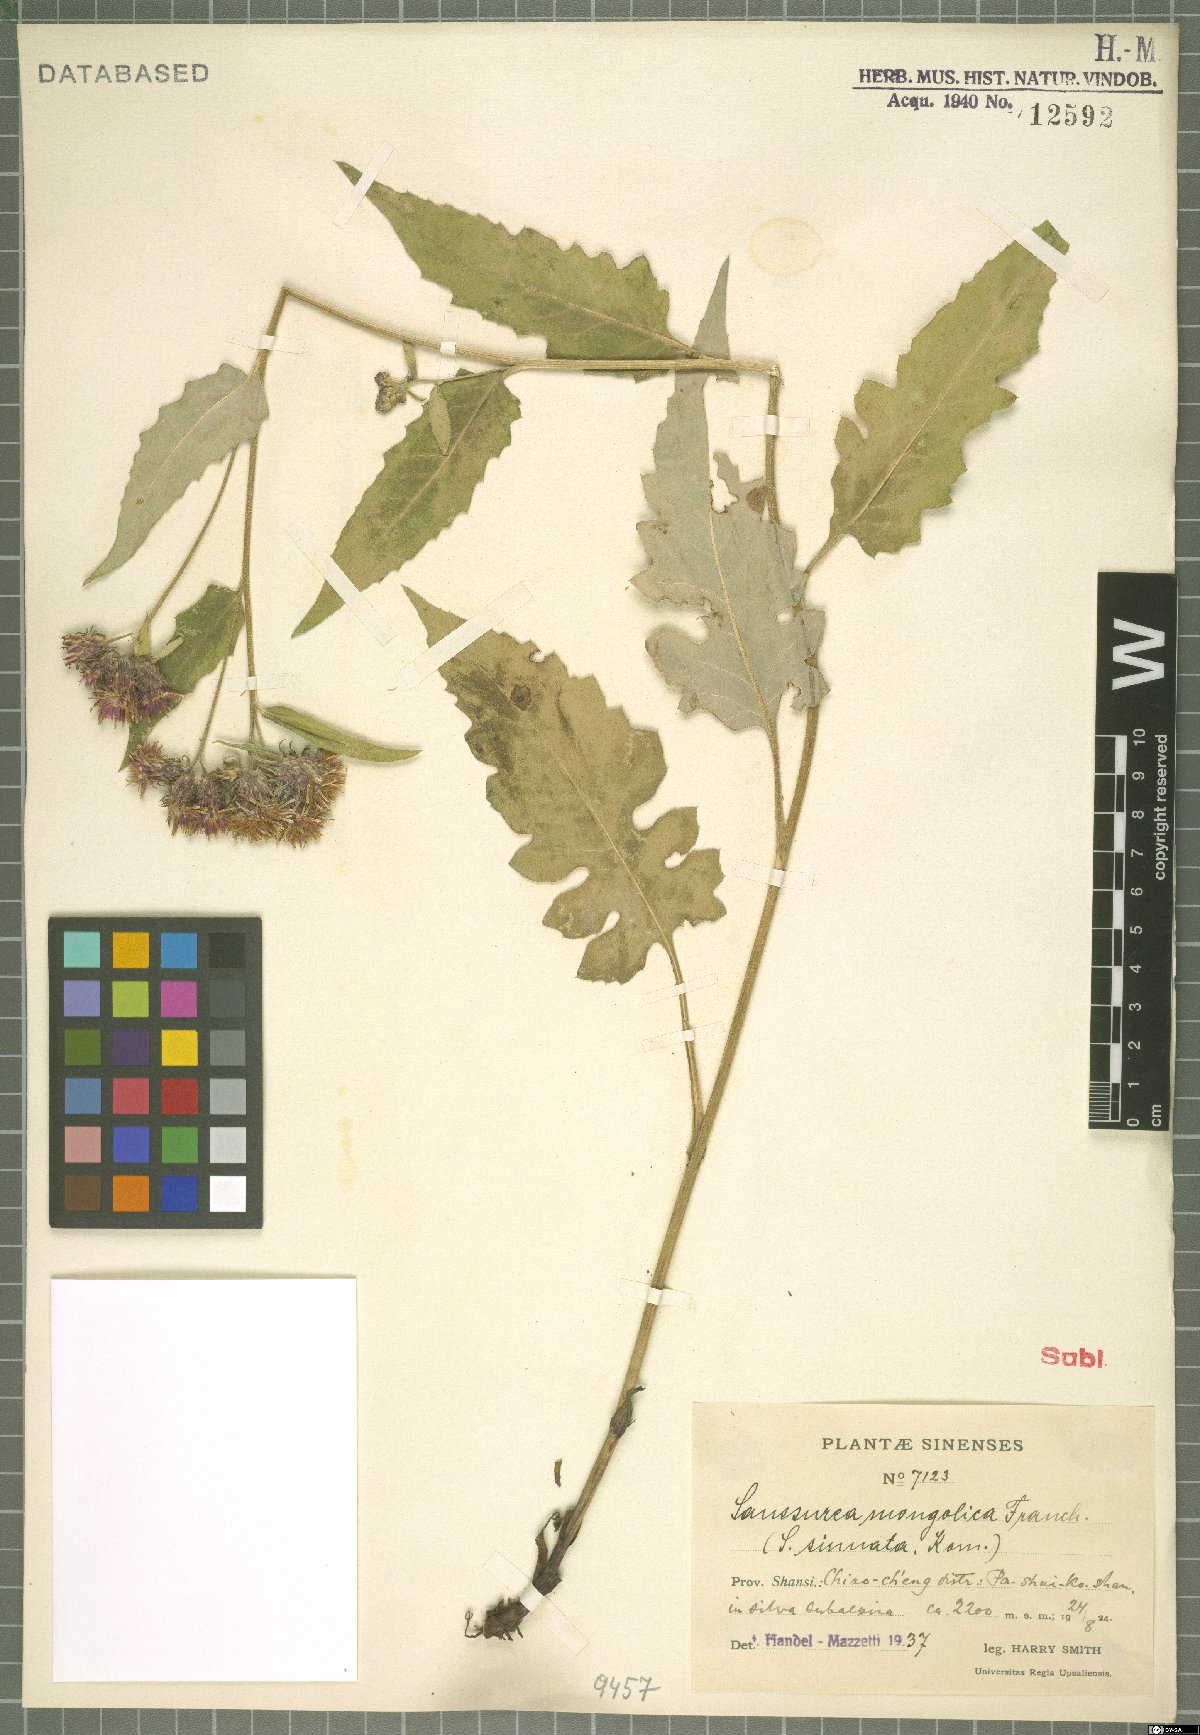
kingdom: Plantae
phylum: Tracheophyta
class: Magnoliopsida
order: Asterales
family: Asteraceae
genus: Saussurea
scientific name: Saussurea mongolica
